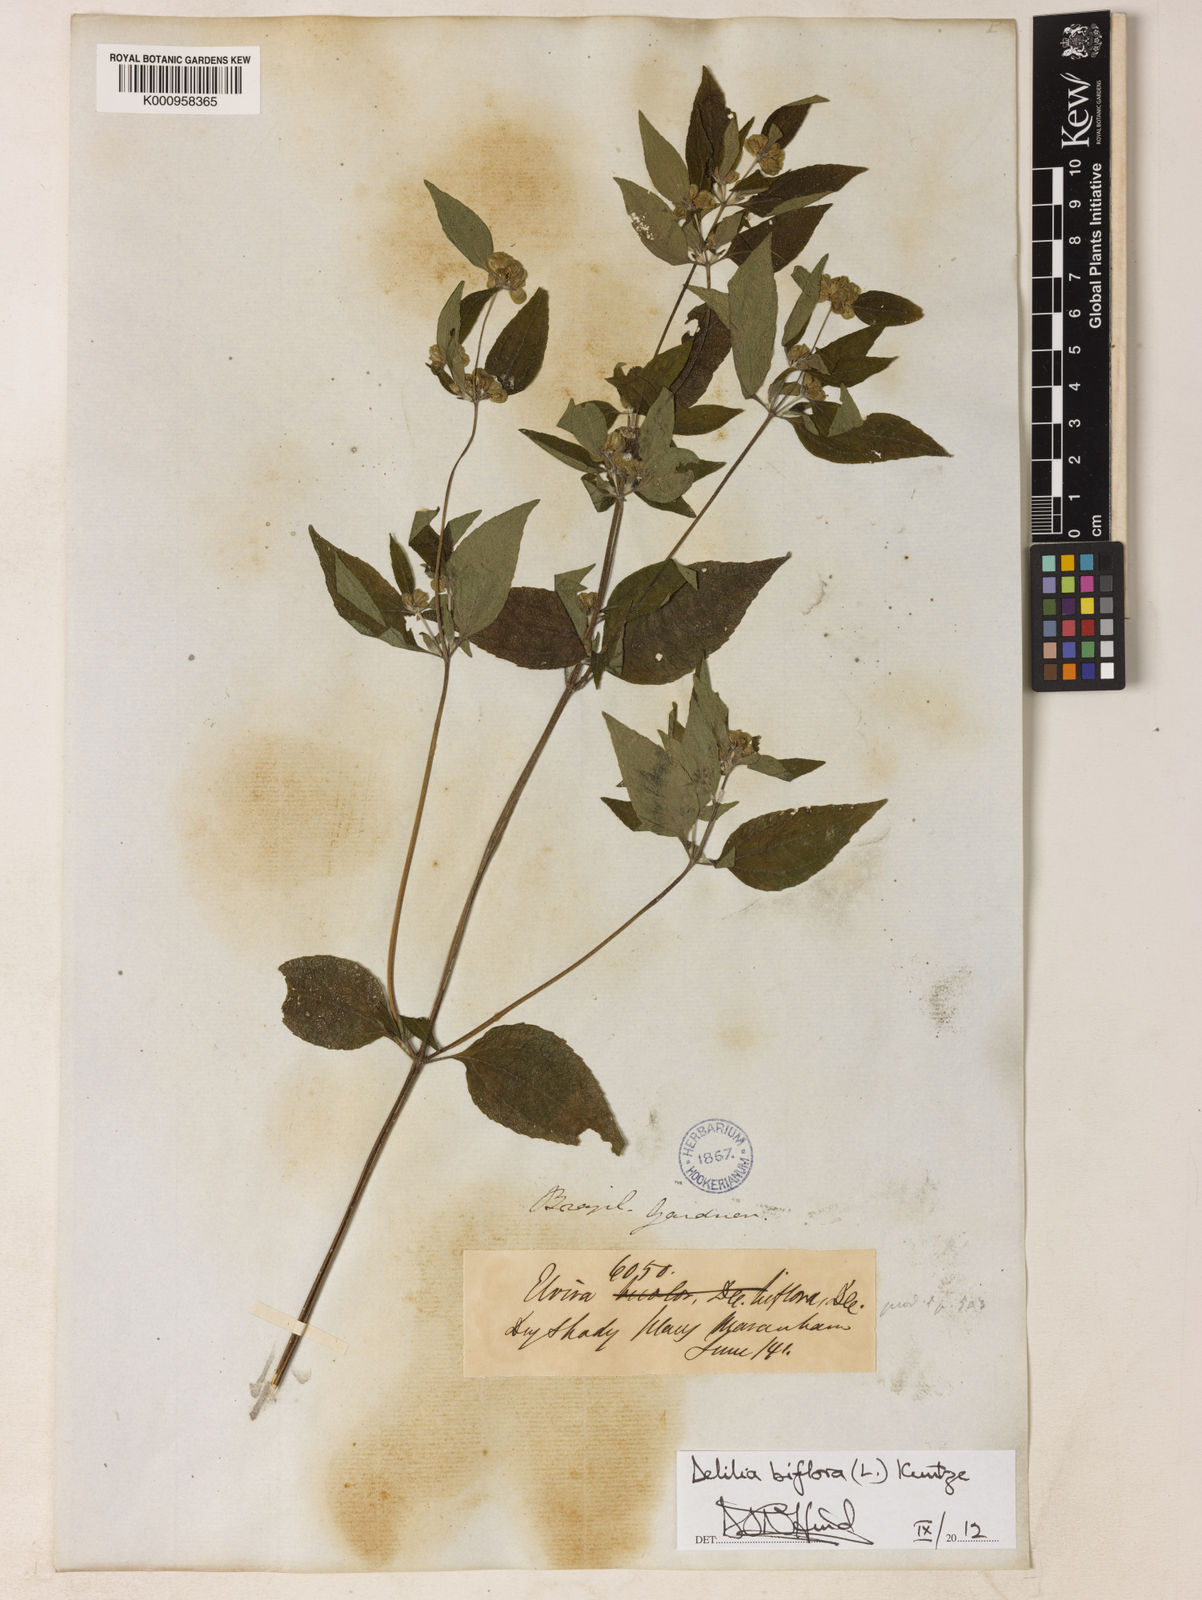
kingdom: Plantae
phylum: Tracheophyta
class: Magnoliopsida
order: Asterales
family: Asteraceae
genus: Delilia
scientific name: Delilia biflora
